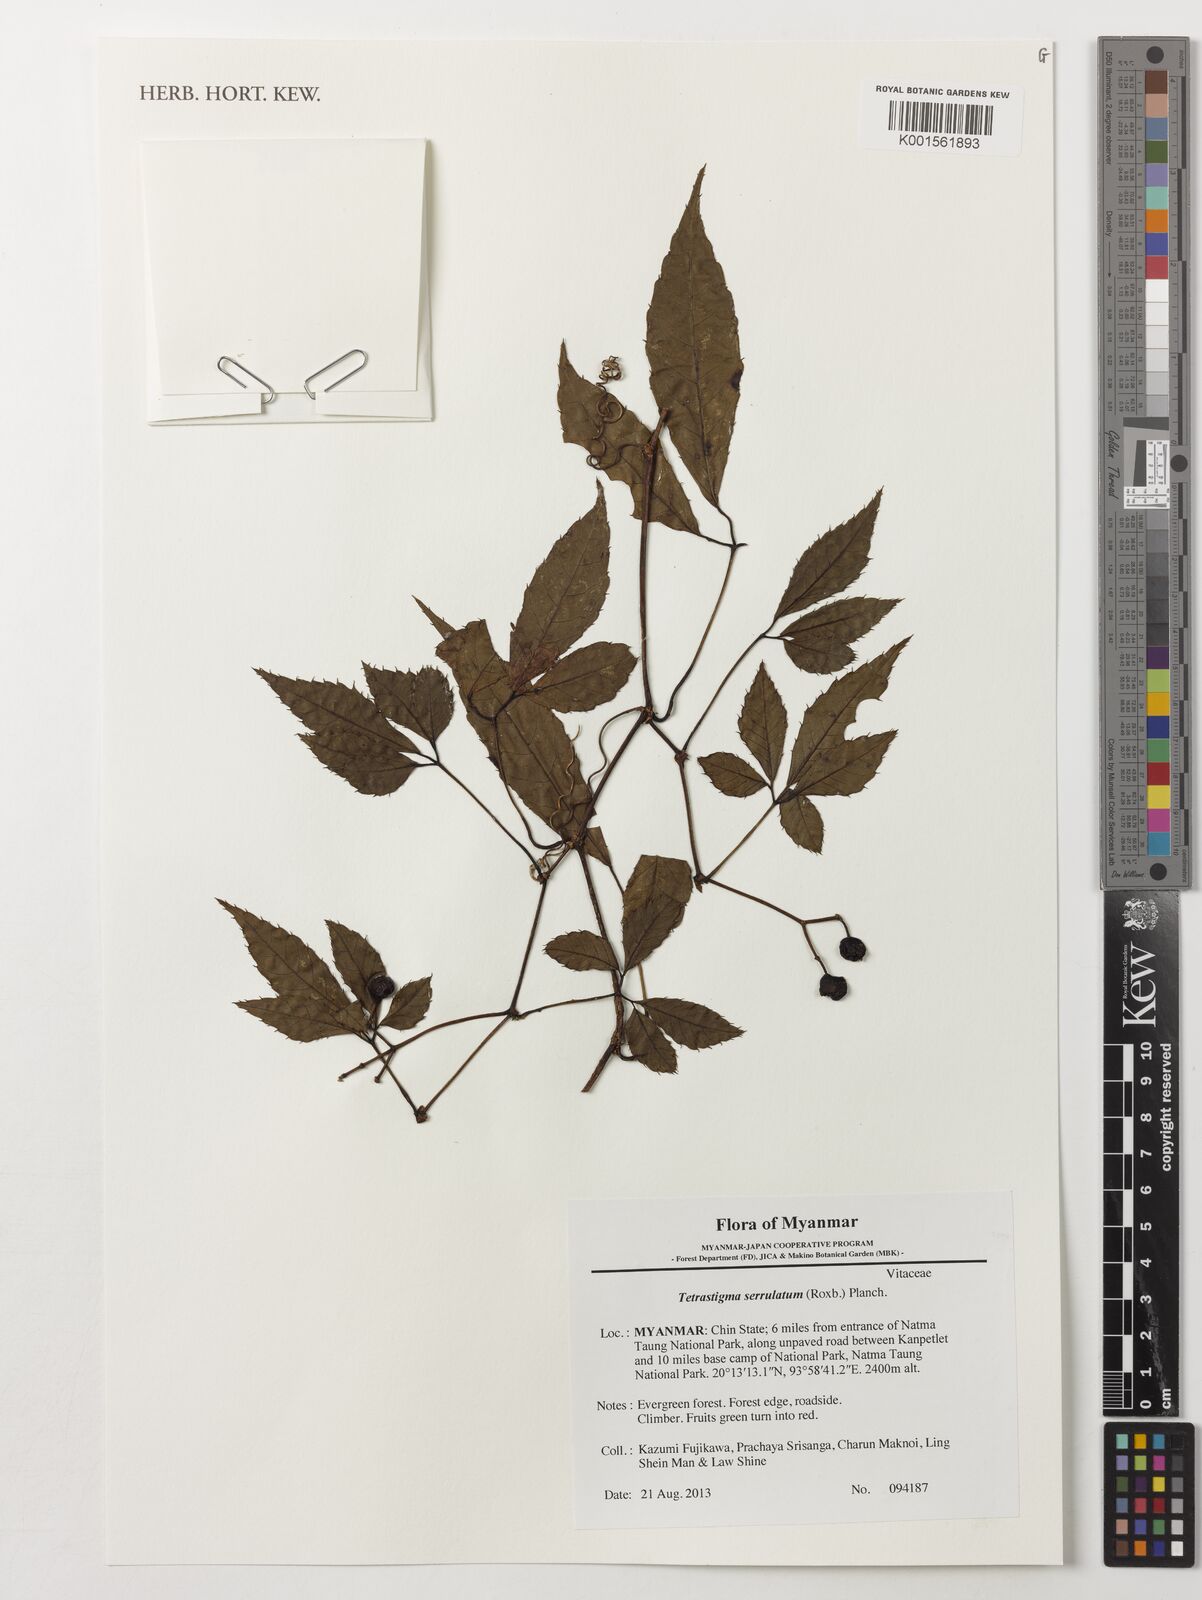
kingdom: Plantae
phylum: Tracheophyta
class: Magnoliopsida
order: Vitales
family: Vitaceae
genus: Tetrastigma
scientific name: Tetrastigma serrulatum
